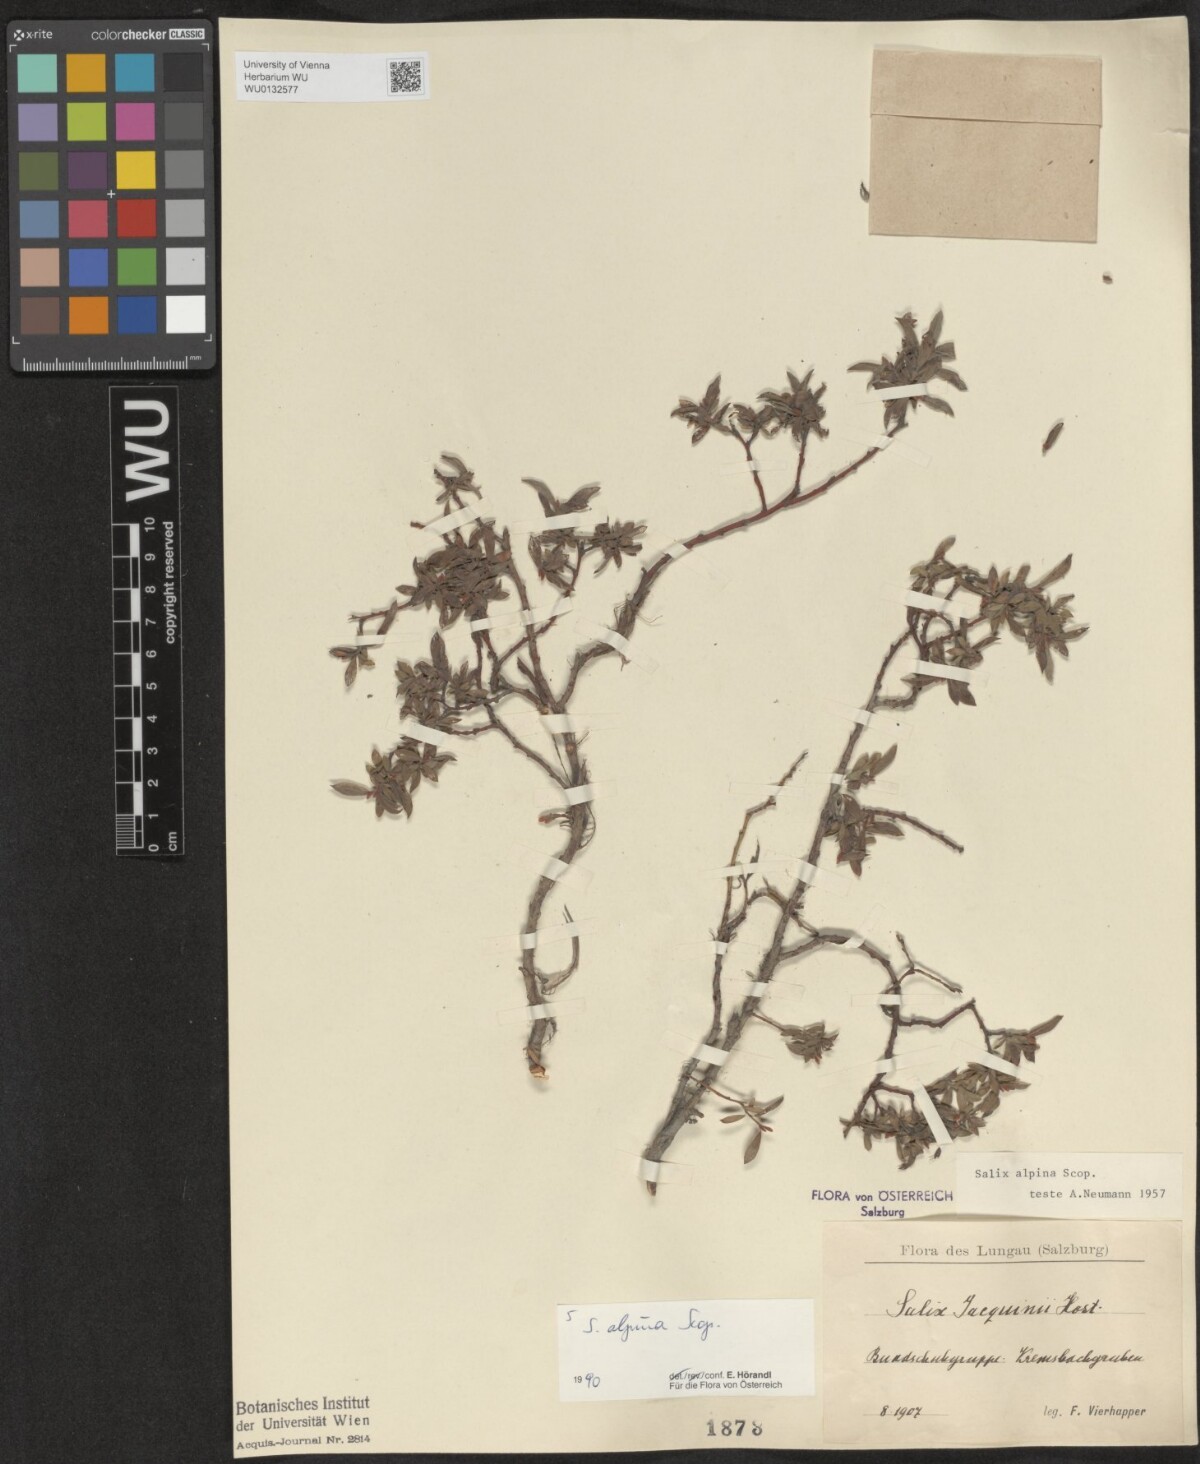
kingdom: Plantae
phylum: Tracheophyta
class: Magnoliopsida
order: Malpighiales
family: Salicaceae
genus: Salix
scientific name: Salix alpina
